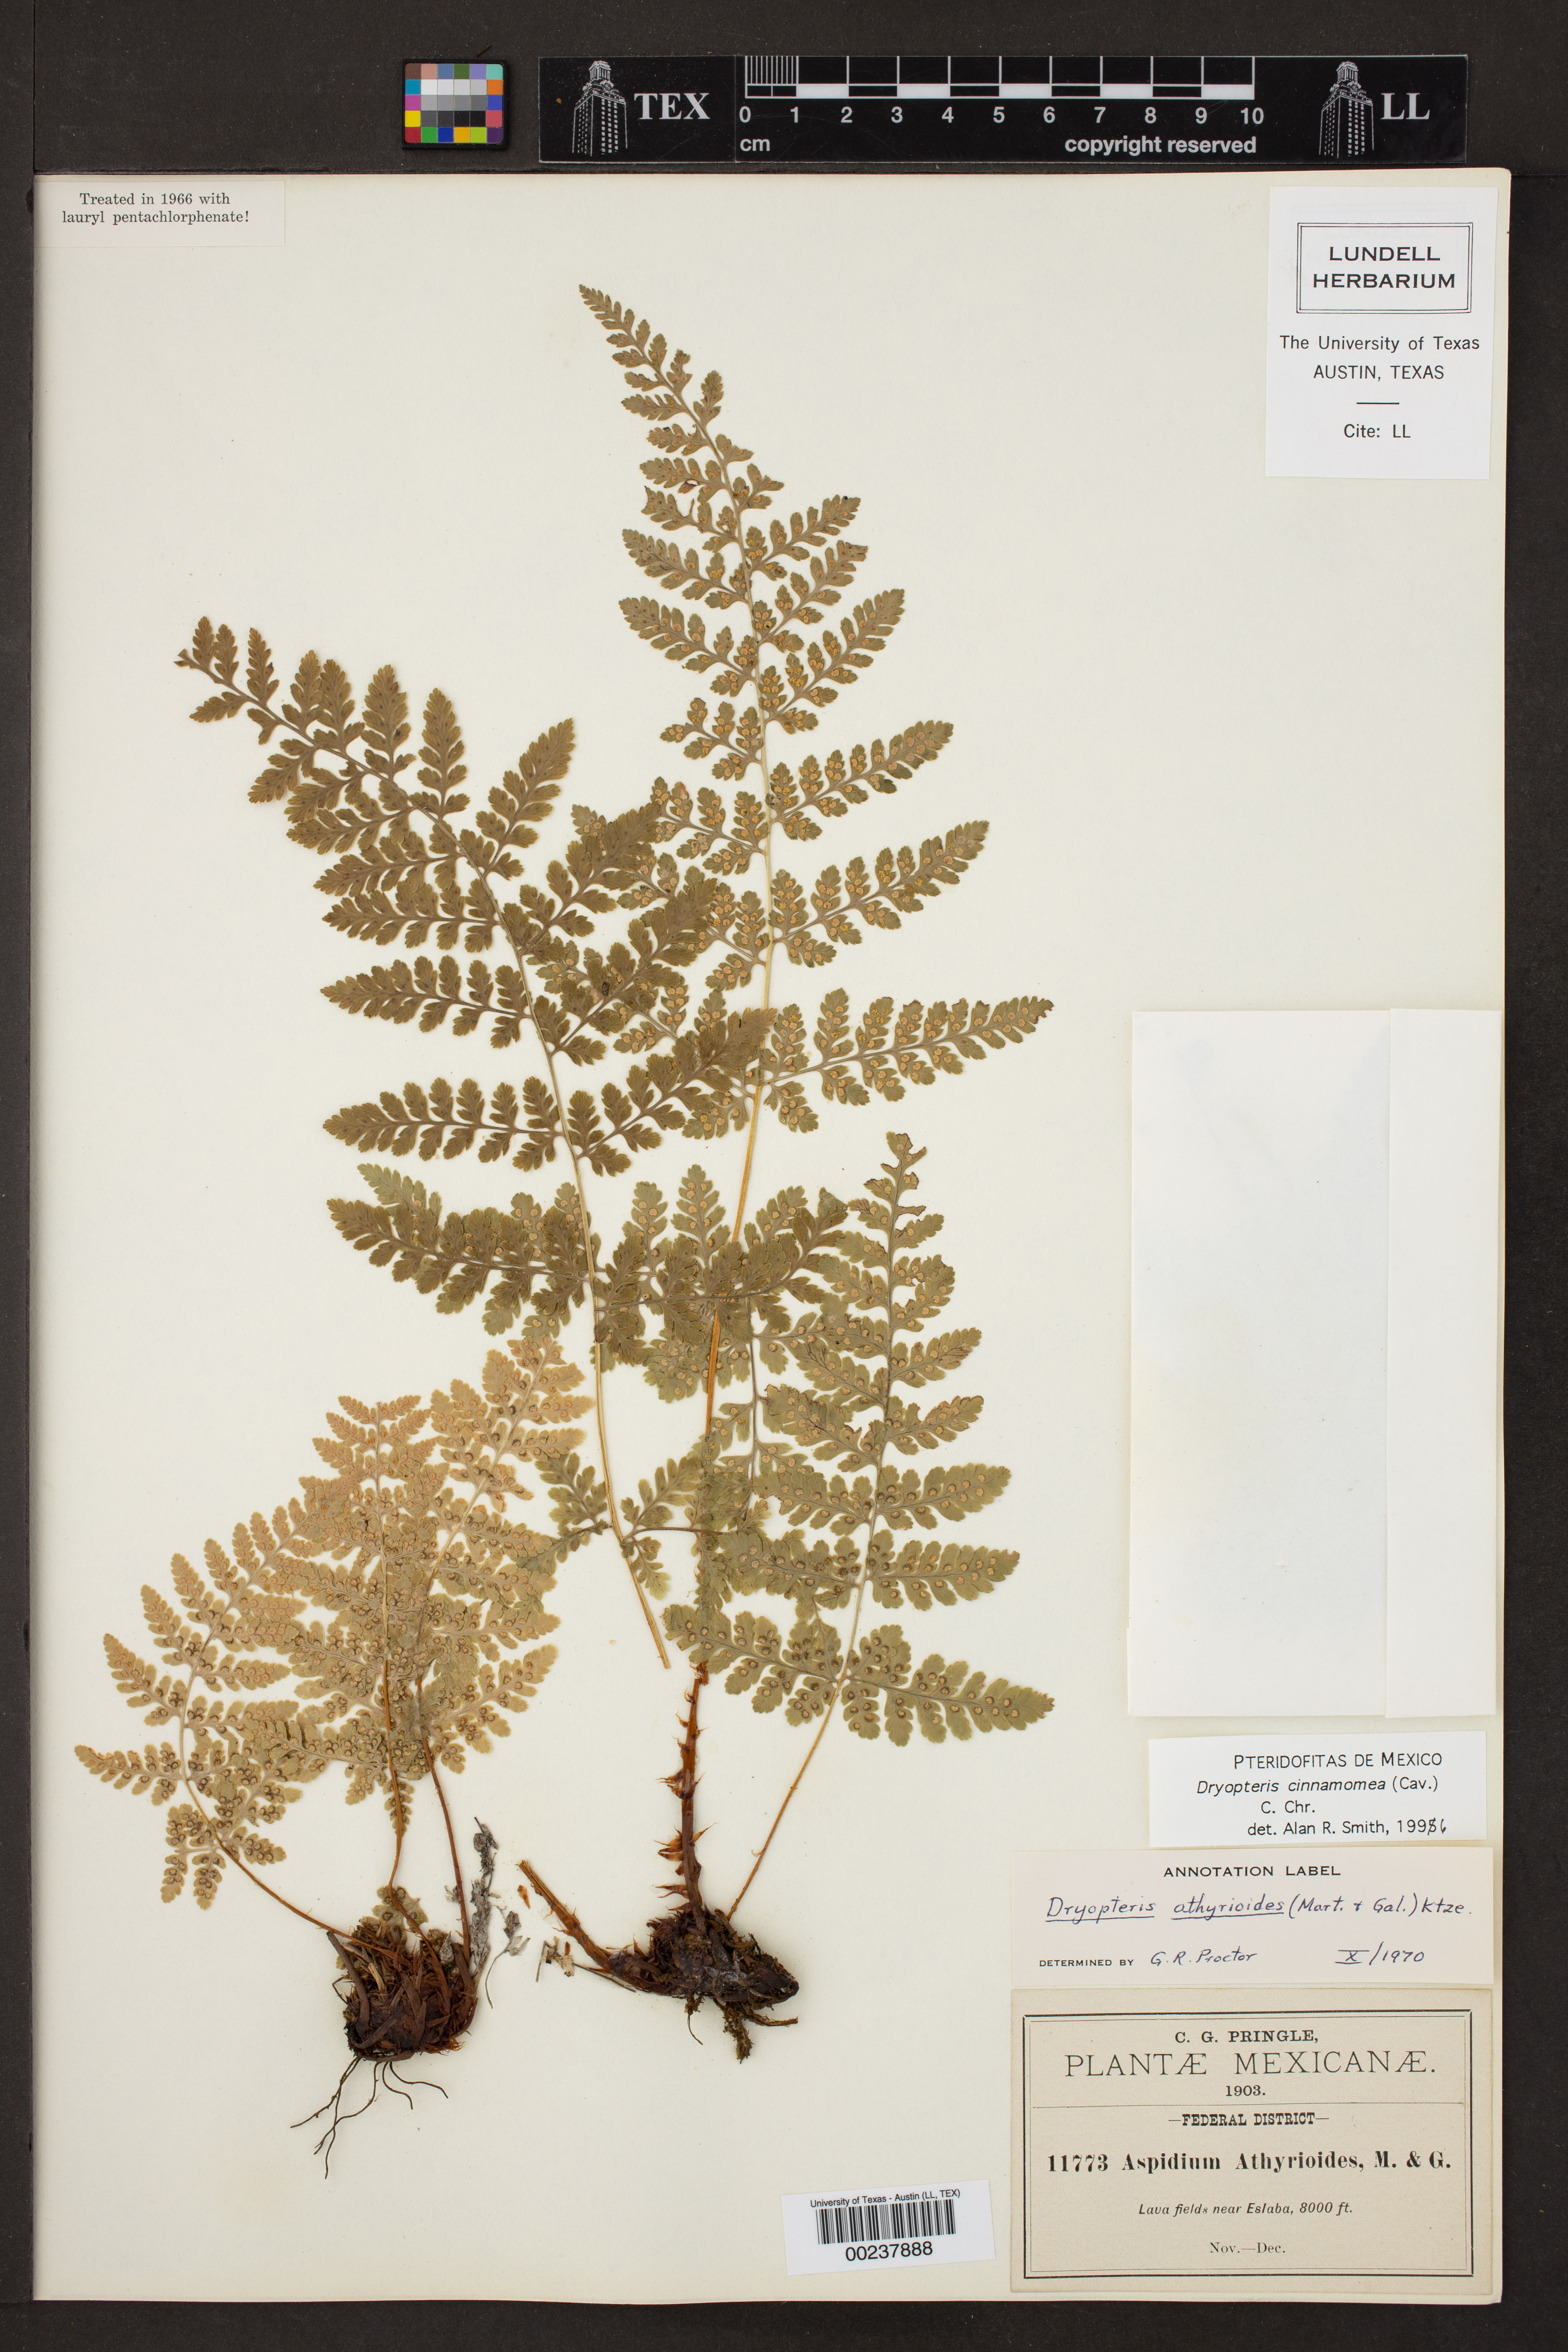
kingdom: Plantae
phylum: Tracheophyta
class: Polypodiopsida
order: Polypodiales
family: Dryopteridaceae
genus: Dryopteris
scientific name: Dryopteris cinnamomea
